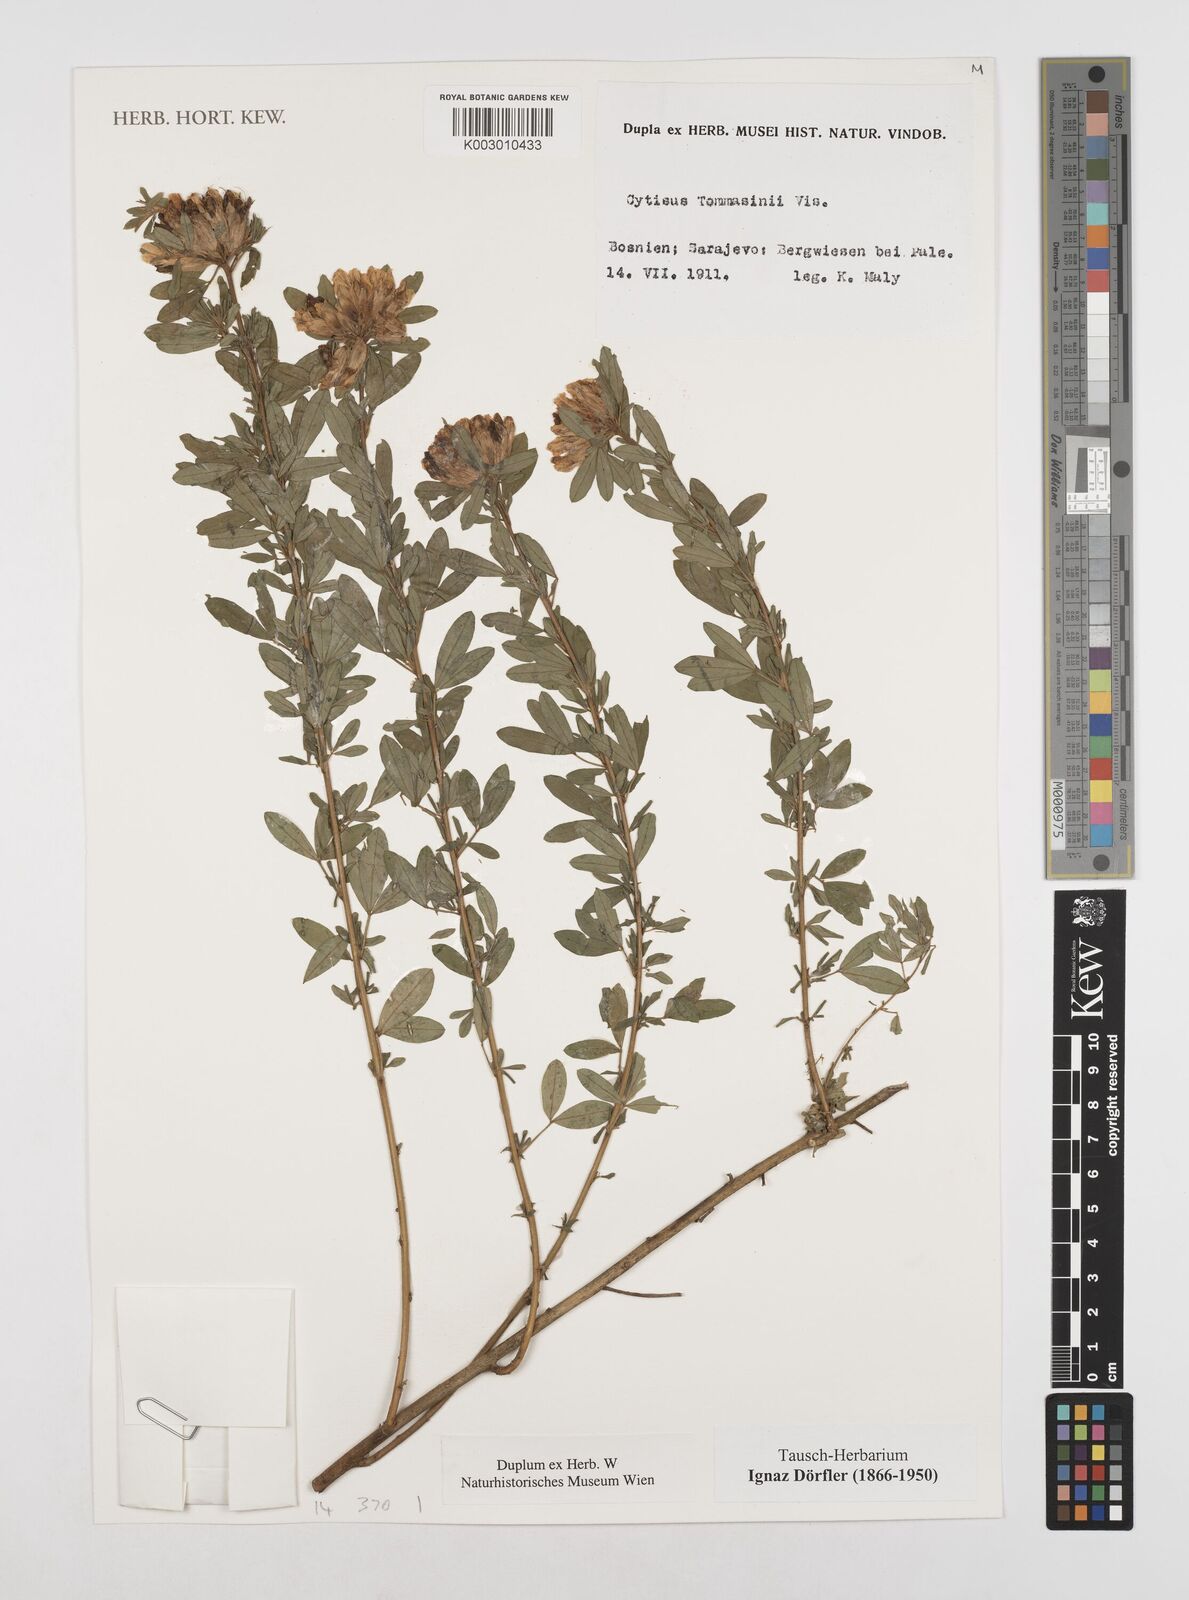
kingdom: Plantae
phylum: Tracheophyta
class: Magnoliopsida
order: Fabales
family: Fabaceae
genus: Chamaecytisus
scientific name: Chamaecytisus tommasinii
